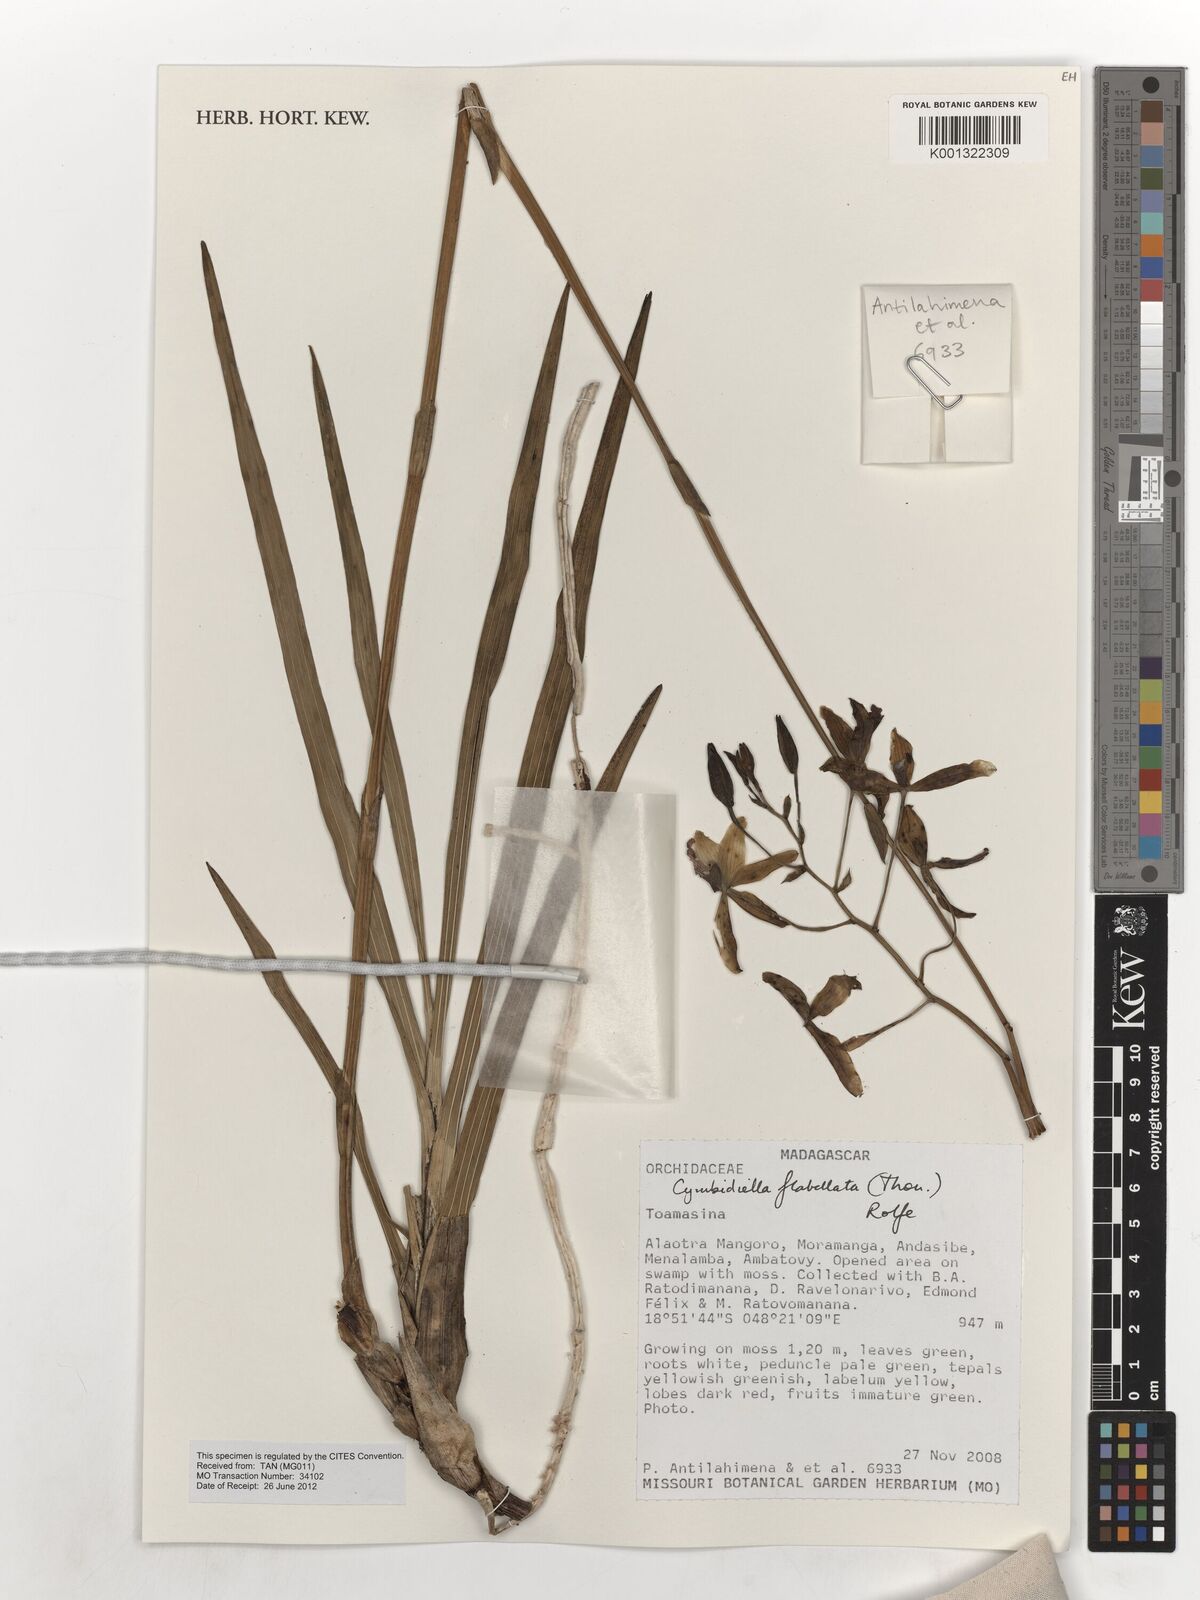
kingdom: Plantae
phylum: Tracheophyta
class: Liliopsida
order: Asparagales
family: Orchidaceae
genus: Eulophia
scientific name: Eulophia flabellata
